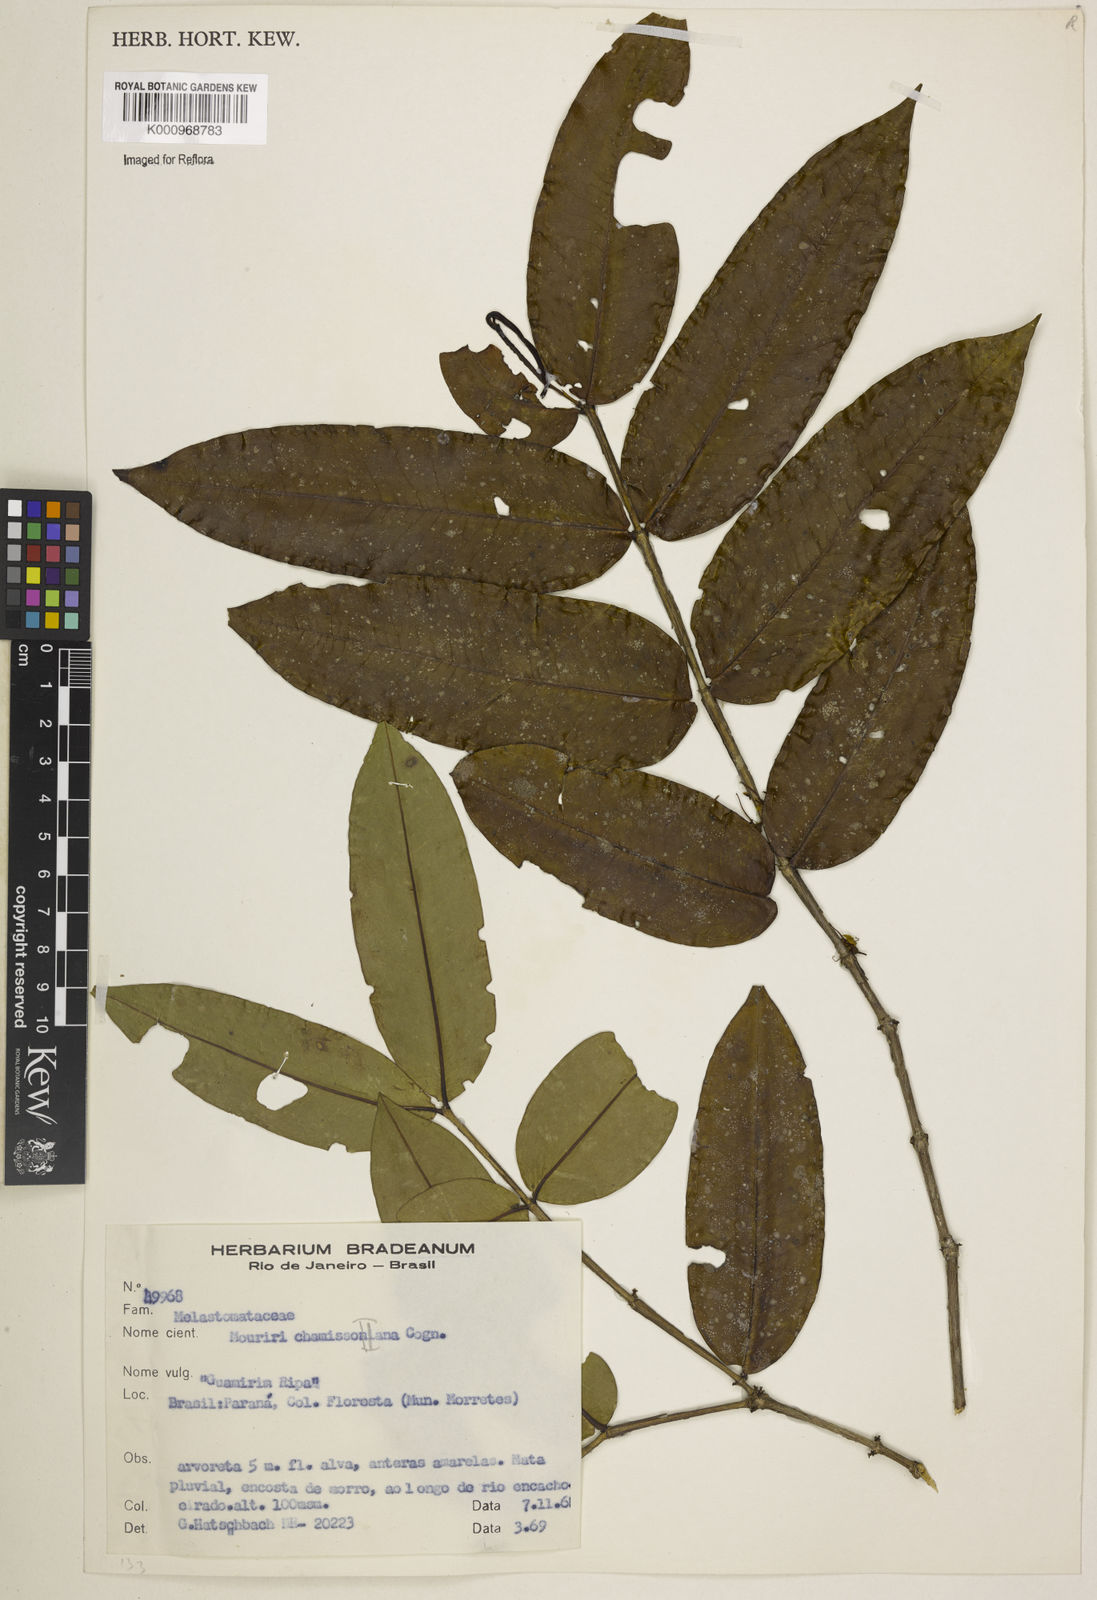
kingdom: Plantae
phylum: Tracheophyta
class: Magnoliopsida
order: Myrtales
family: Melastomataceae
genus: Mouriri
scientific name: Mouriri chamissoana
